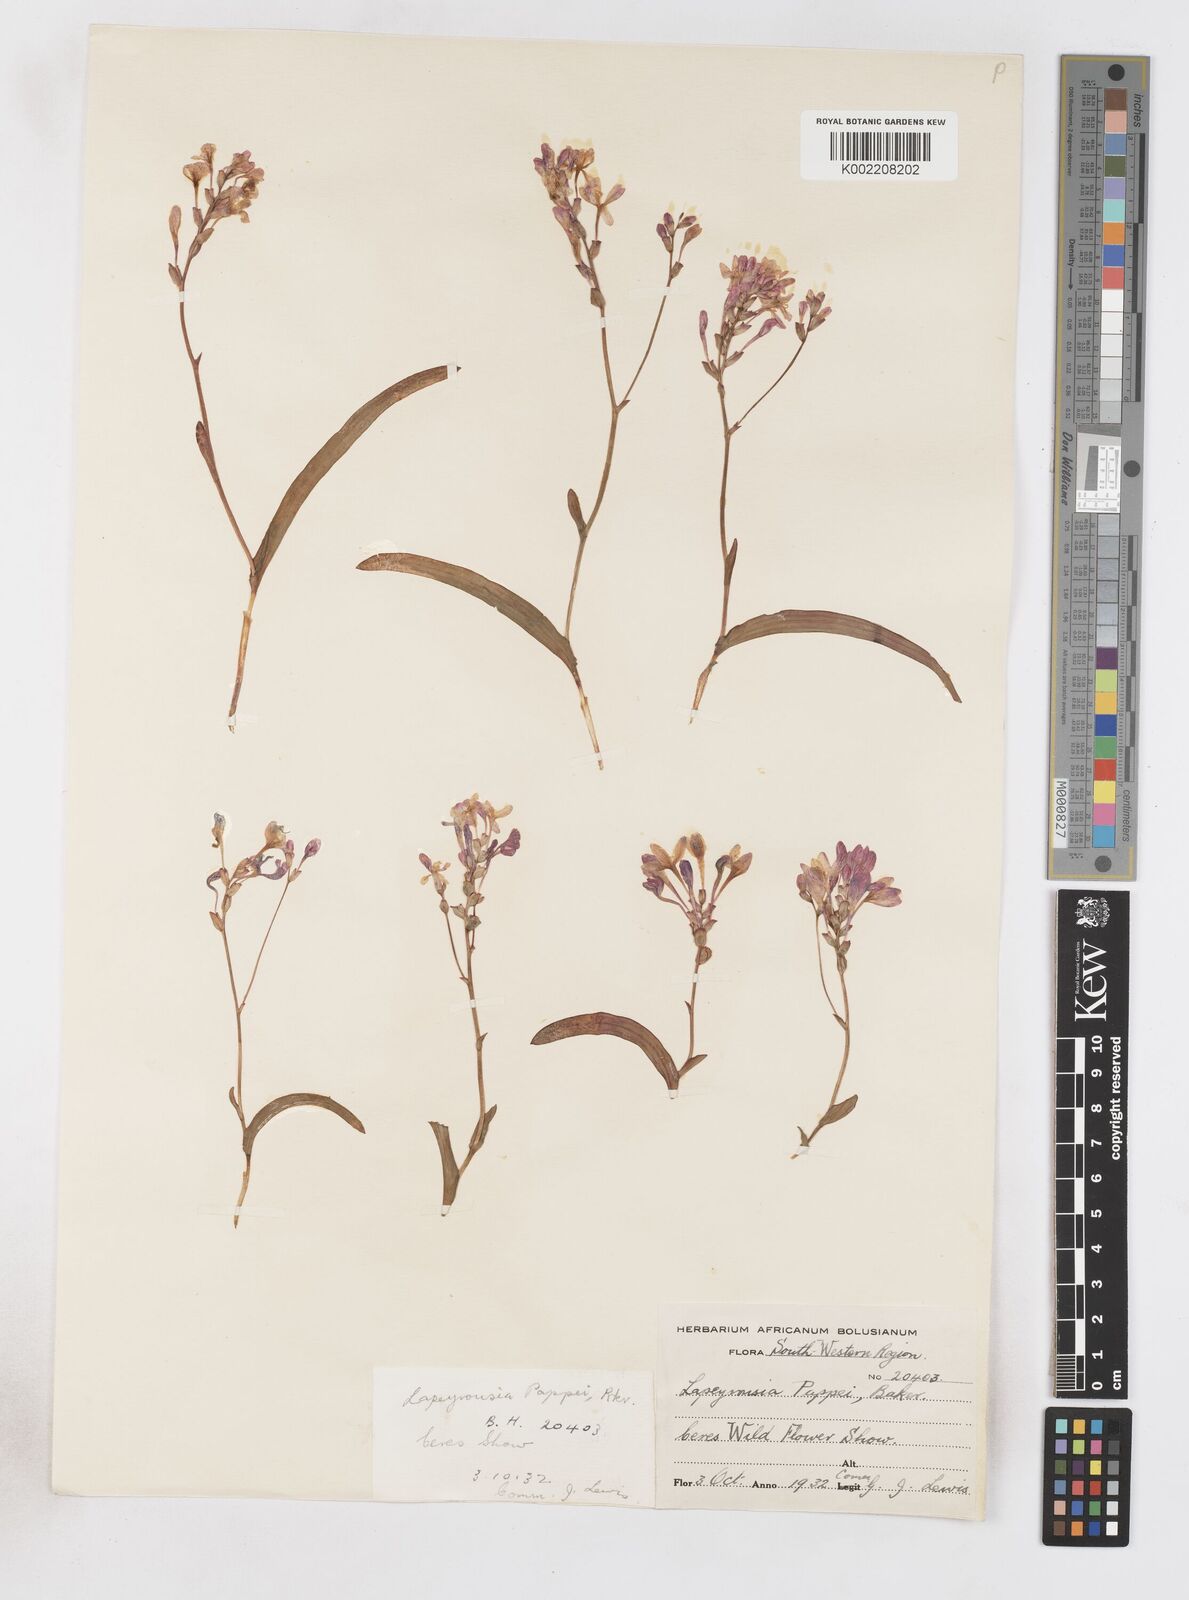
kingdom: Plantae
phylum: Tracheophyta
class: Liliopsida
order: Asparagales
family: Iridaceae
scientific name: Iridaceae
